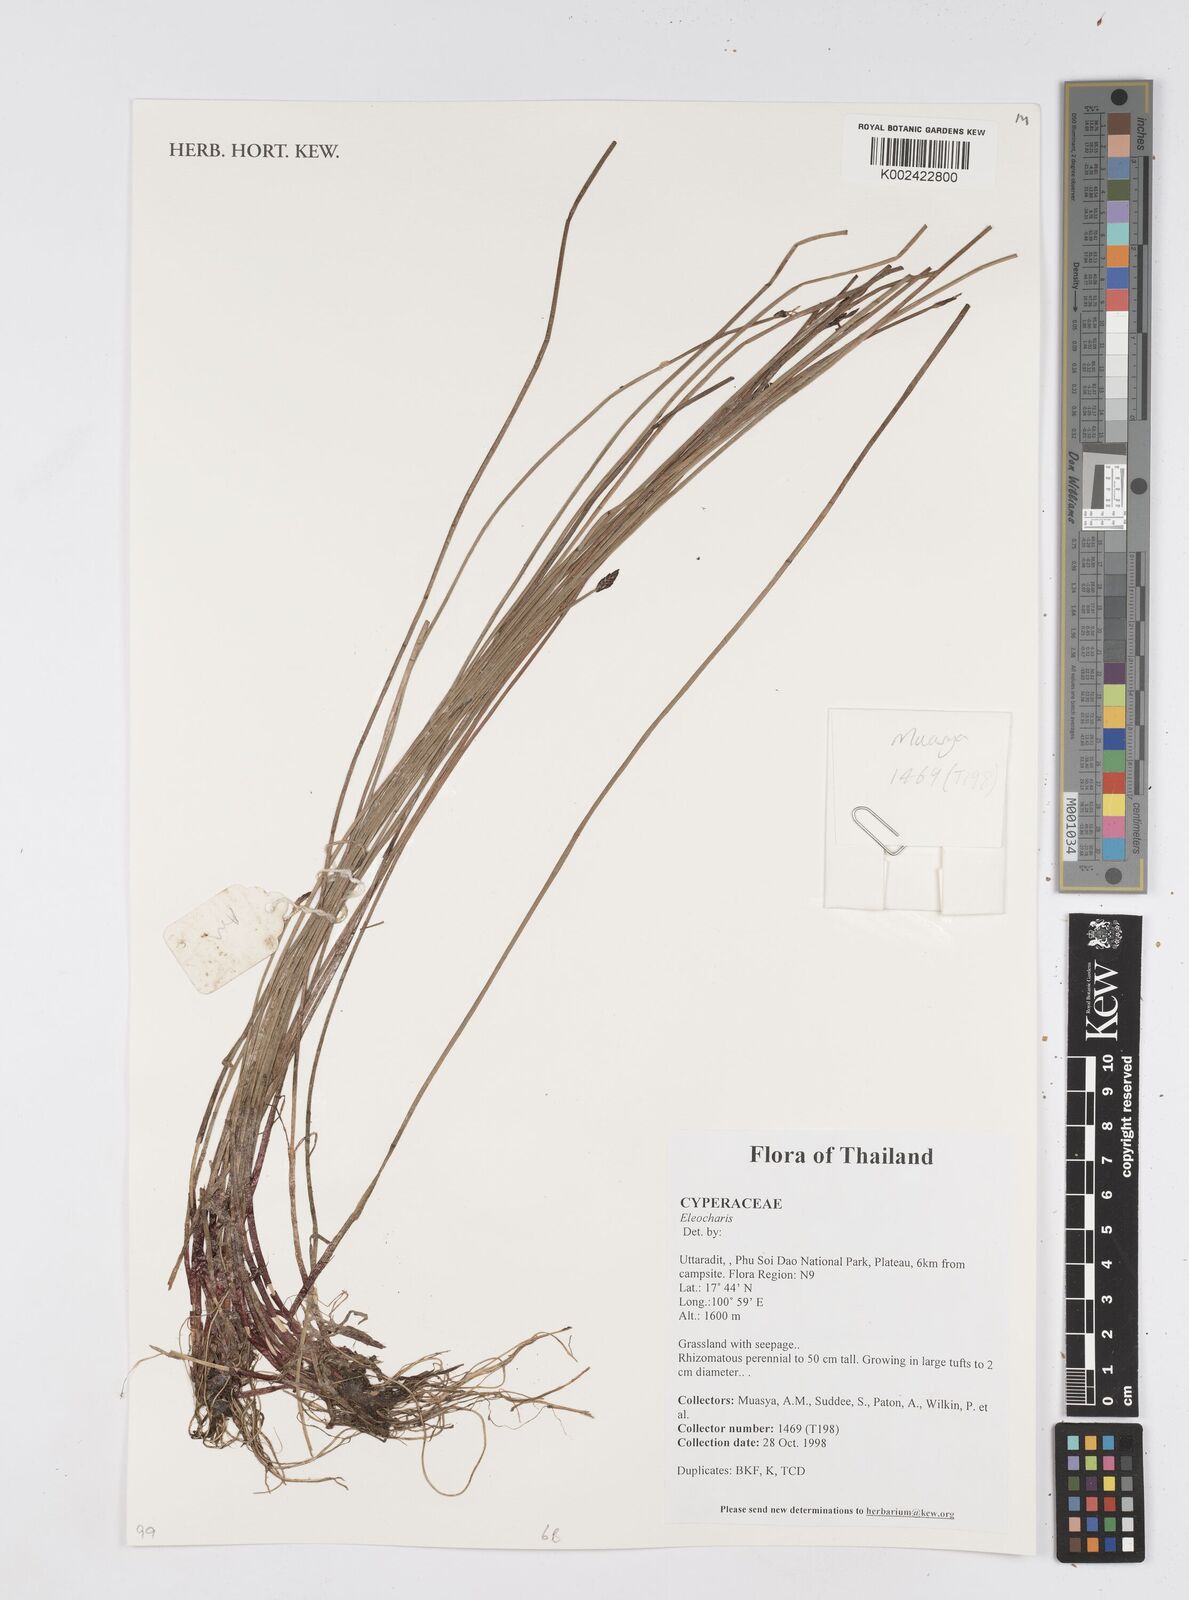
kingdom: Plantae
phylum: Tracheophyta
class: Liliopsida
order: Poales
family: Cyperaceae
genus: Eleocharis
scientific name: Eleocharis
